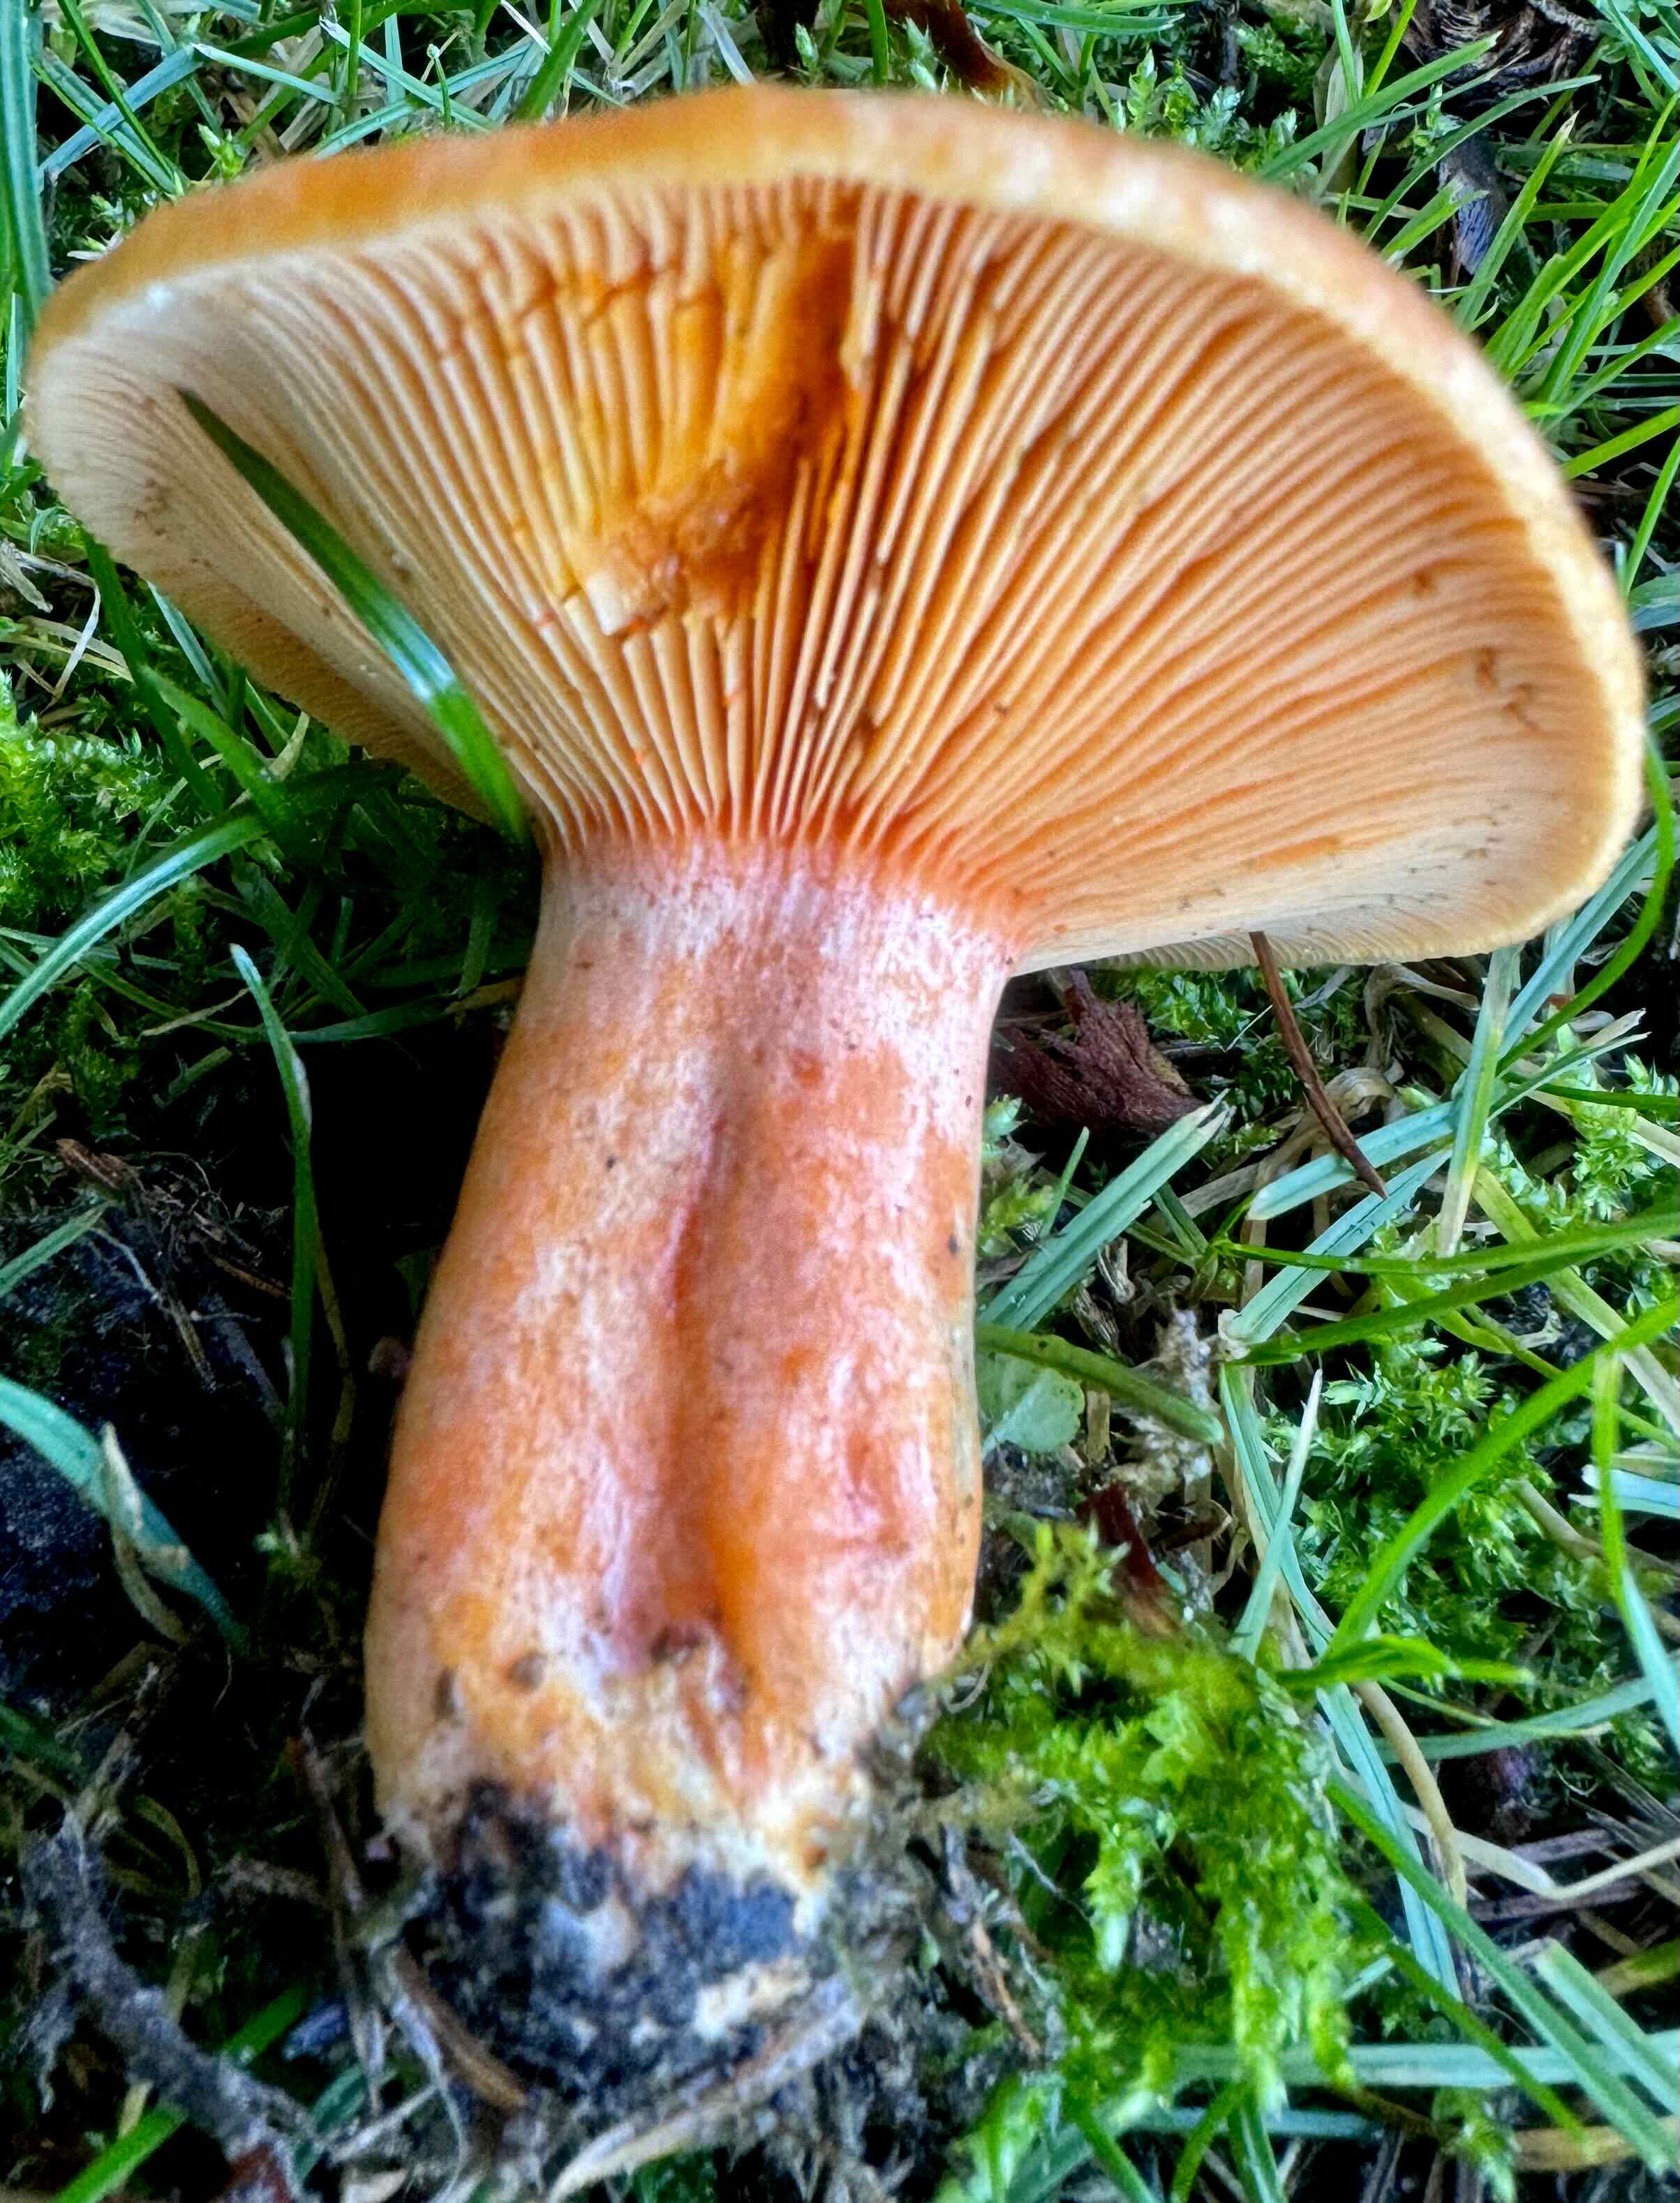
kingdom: Fungi
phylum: Basidiomycota
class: Agaricomycetes
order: Russulales
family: Russulaceae
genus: Lactarius
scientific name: Lactarius deterrimus
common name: gran-mælkehat
